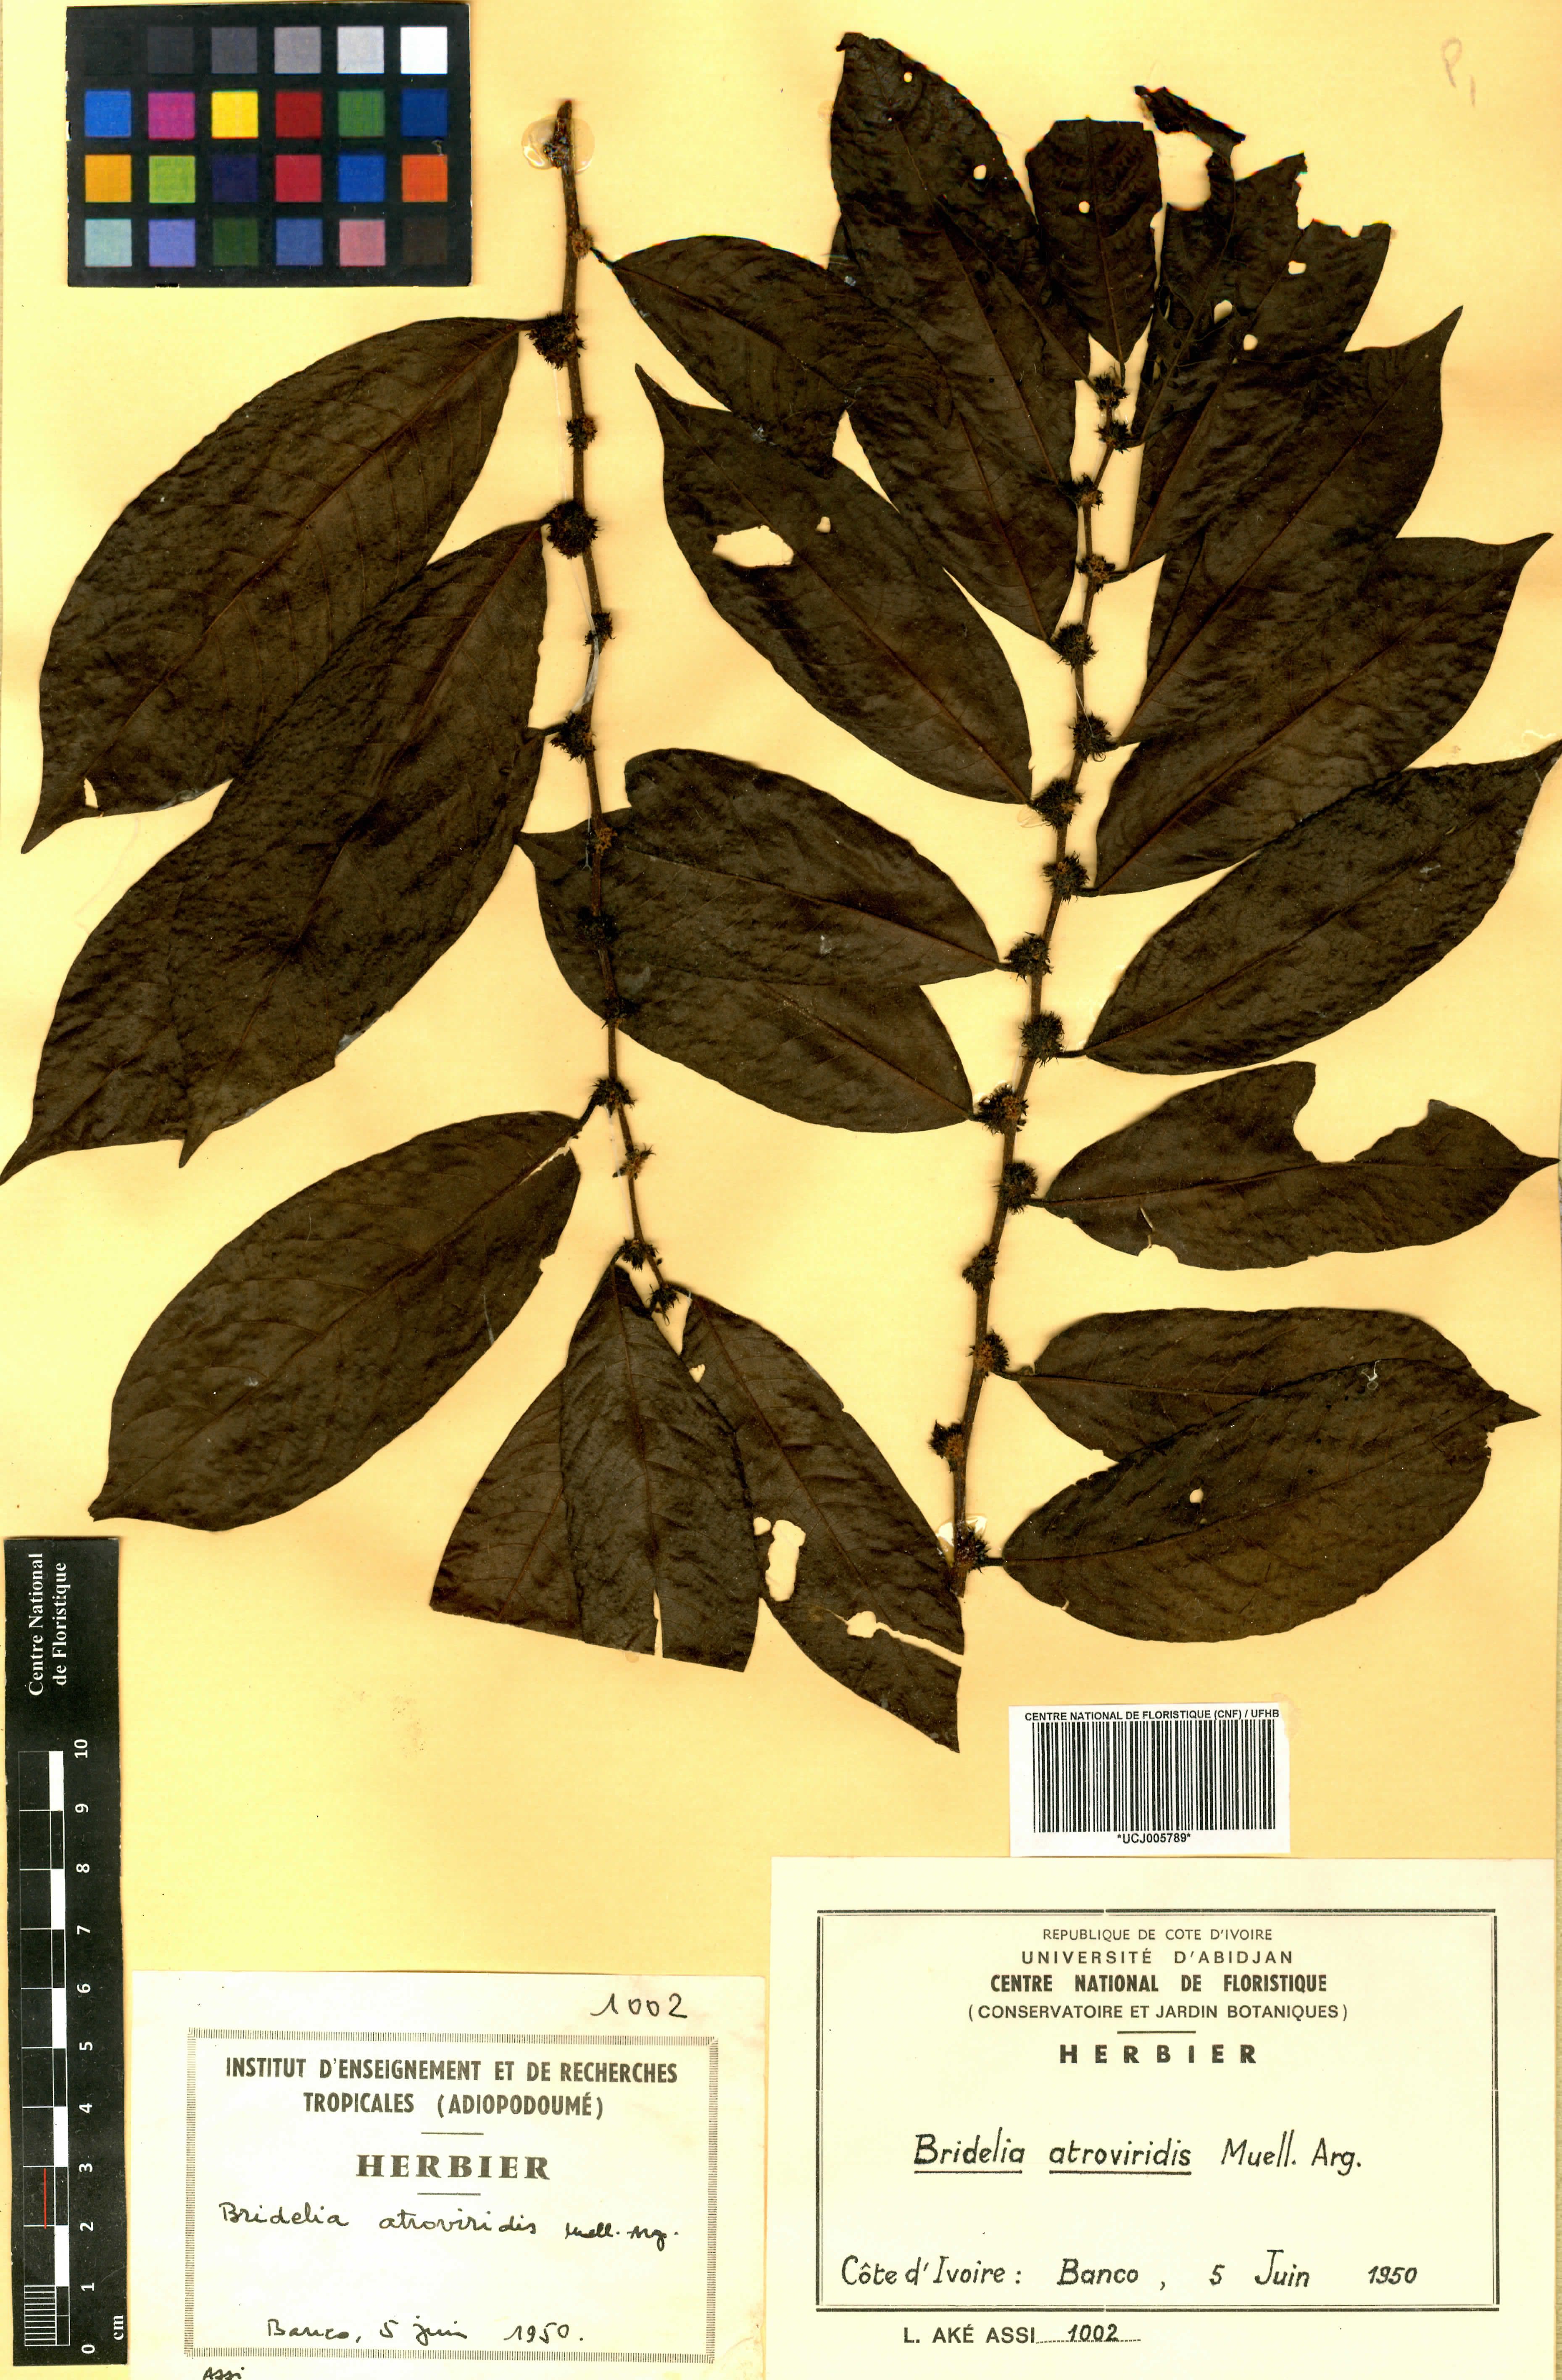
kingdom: Plantae
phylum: Tracheophyta
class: Magnoliopsida
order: Malpighiales
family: Phyllanthaceae
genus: Bridelia
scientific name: Bridelia atroviridis
